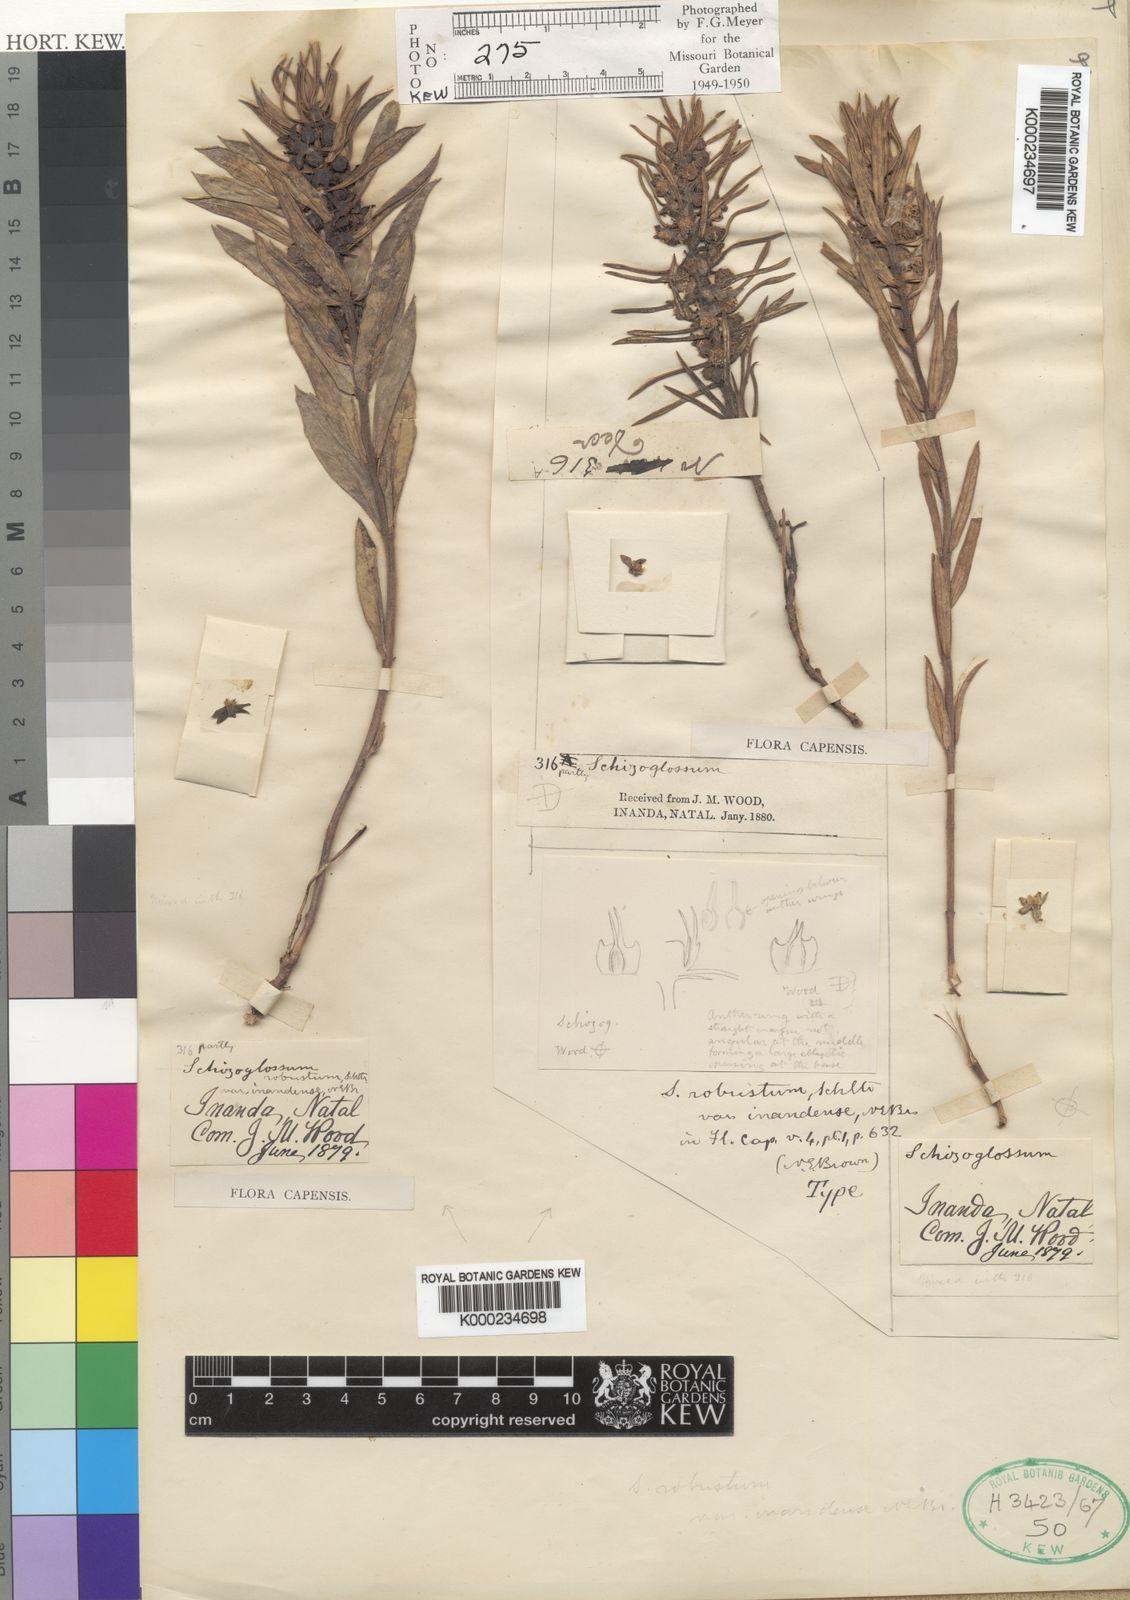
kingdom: Plantae
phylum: Tracheophyta
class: Magnoliopsida
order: Gentianales
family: Apocynaceae
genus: Aspidoglossum
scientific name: Aspidoglossum ovalifolium
